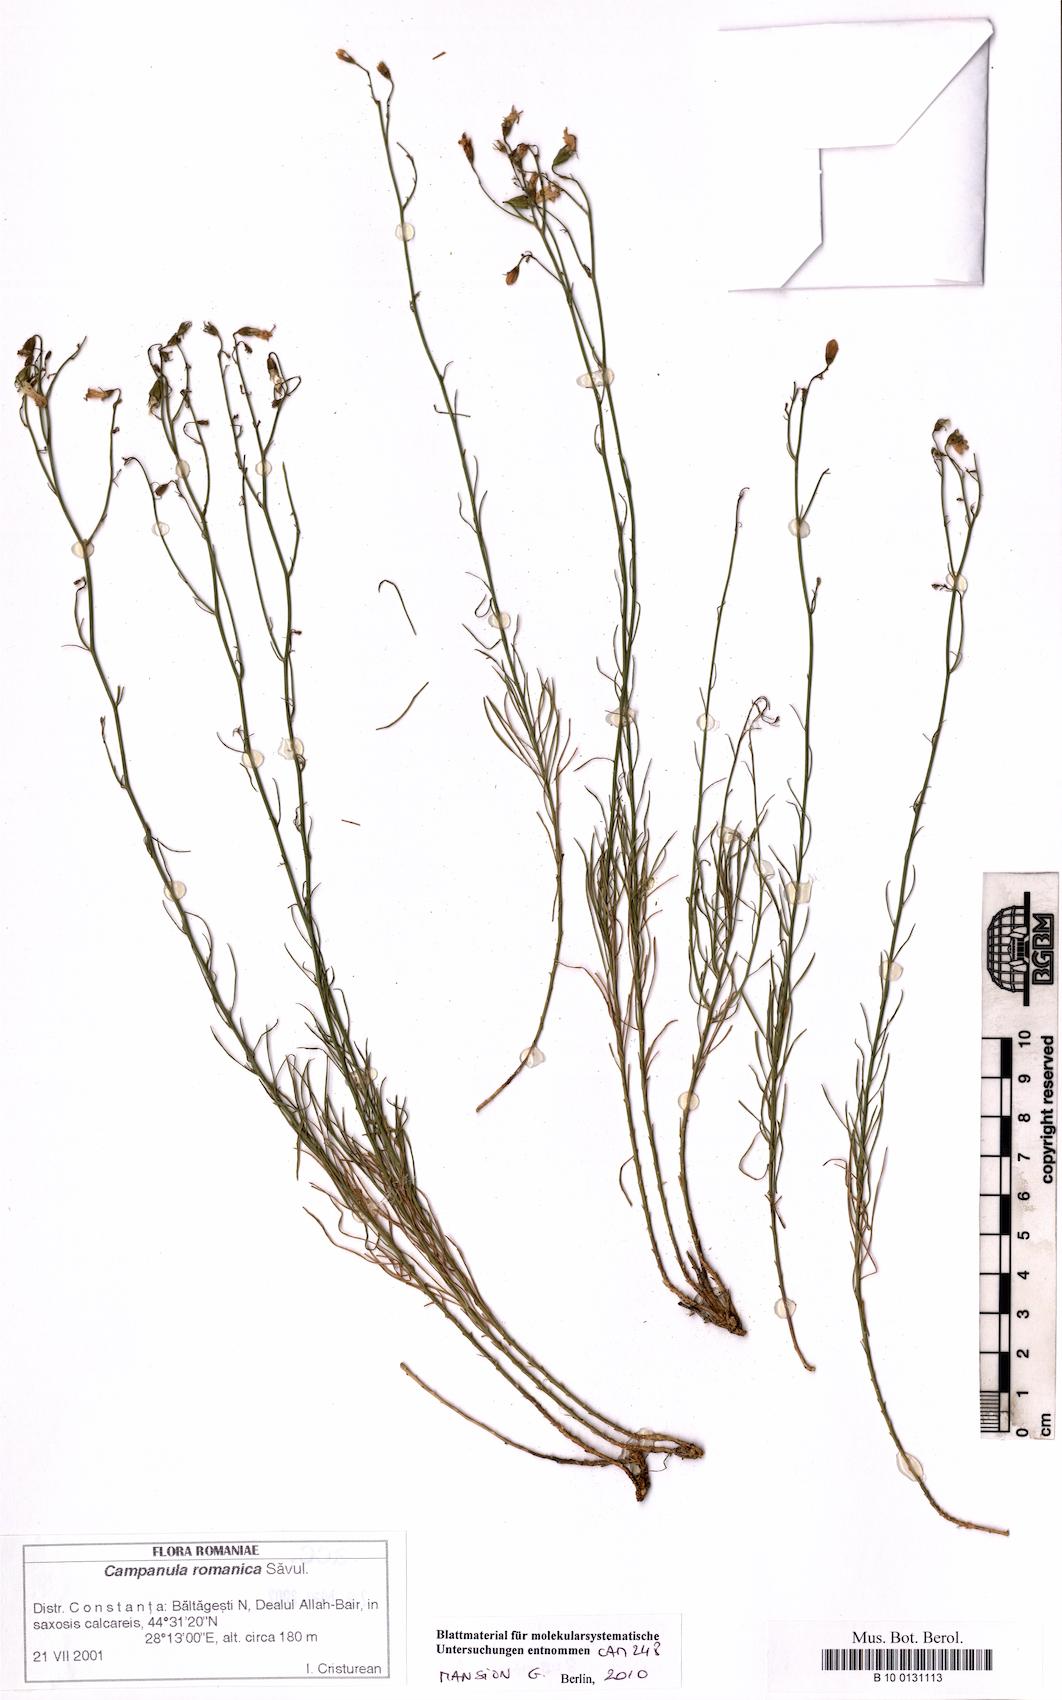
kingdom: Plantae
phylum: Tracheophyta
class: Magnoliopsida
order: Asterales
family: Campanulaceae
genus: Campanula
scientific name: Campanula romanica
